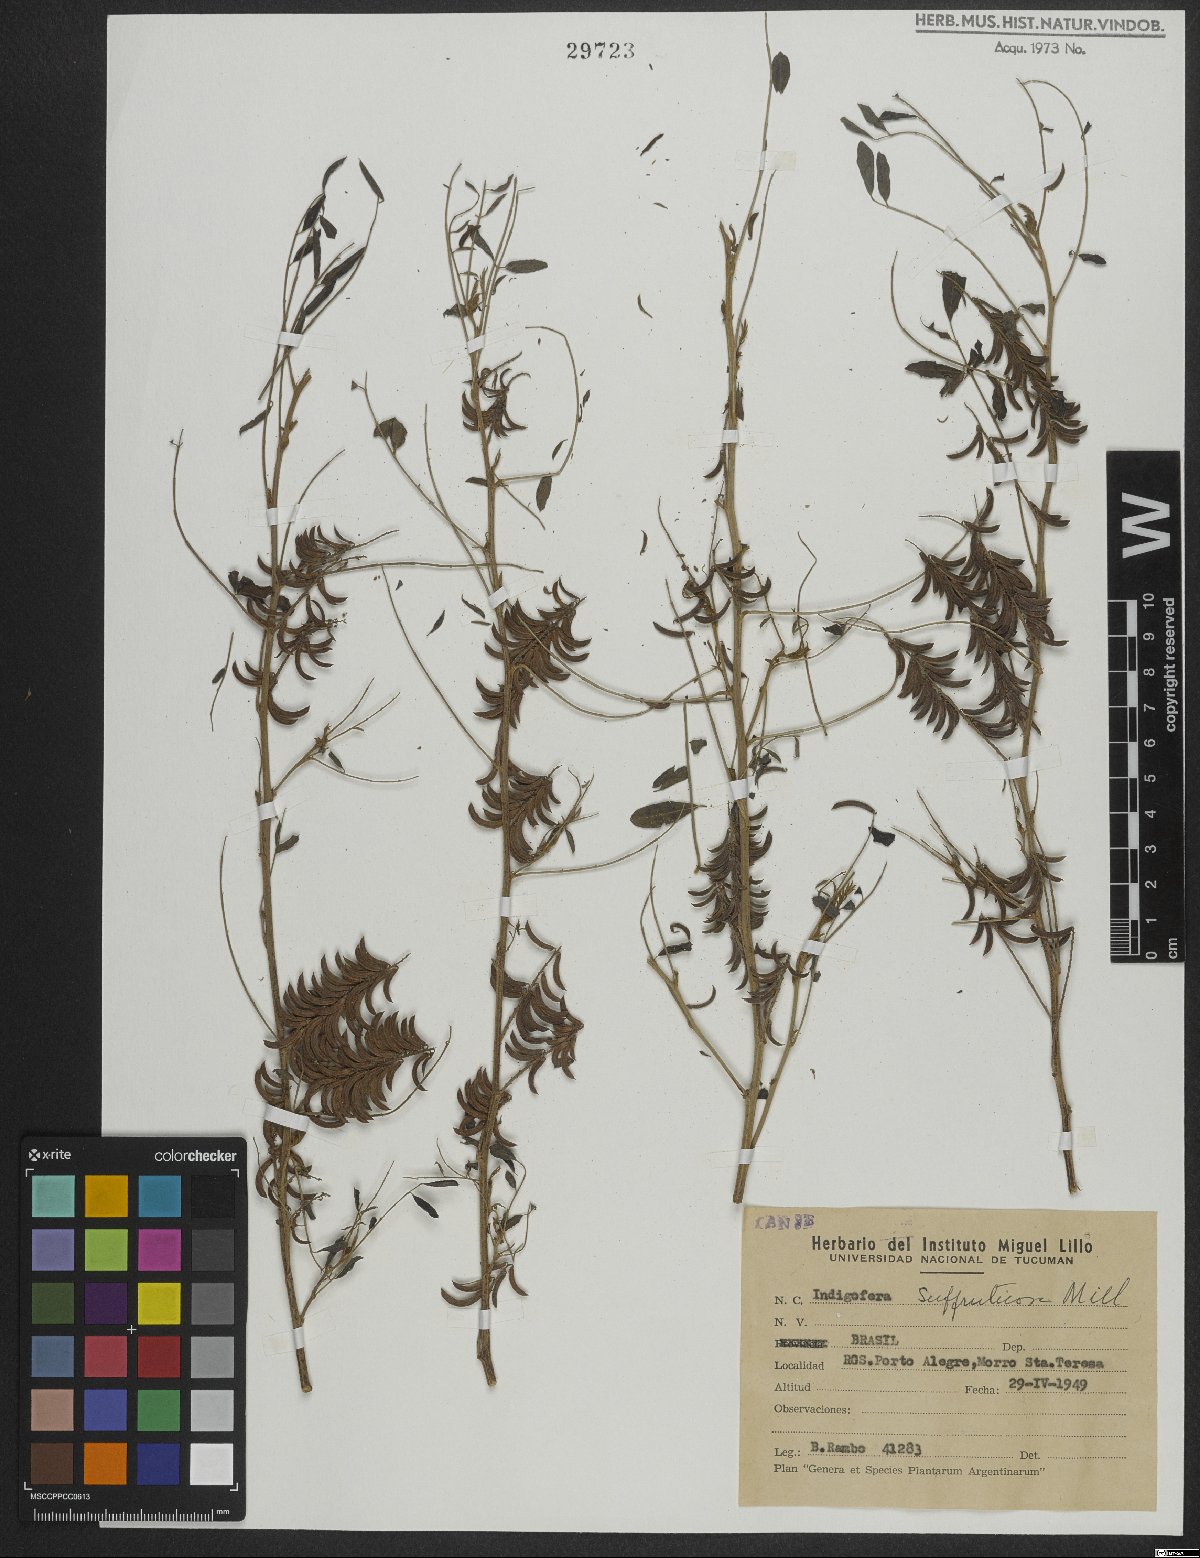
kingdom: Plantae
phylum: Tracheophyta
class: Magnoliopsida
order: Fabales
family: Fabaceae
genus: Indigofera
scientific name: Indigofera suffruticosa
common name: Anil de pasto
